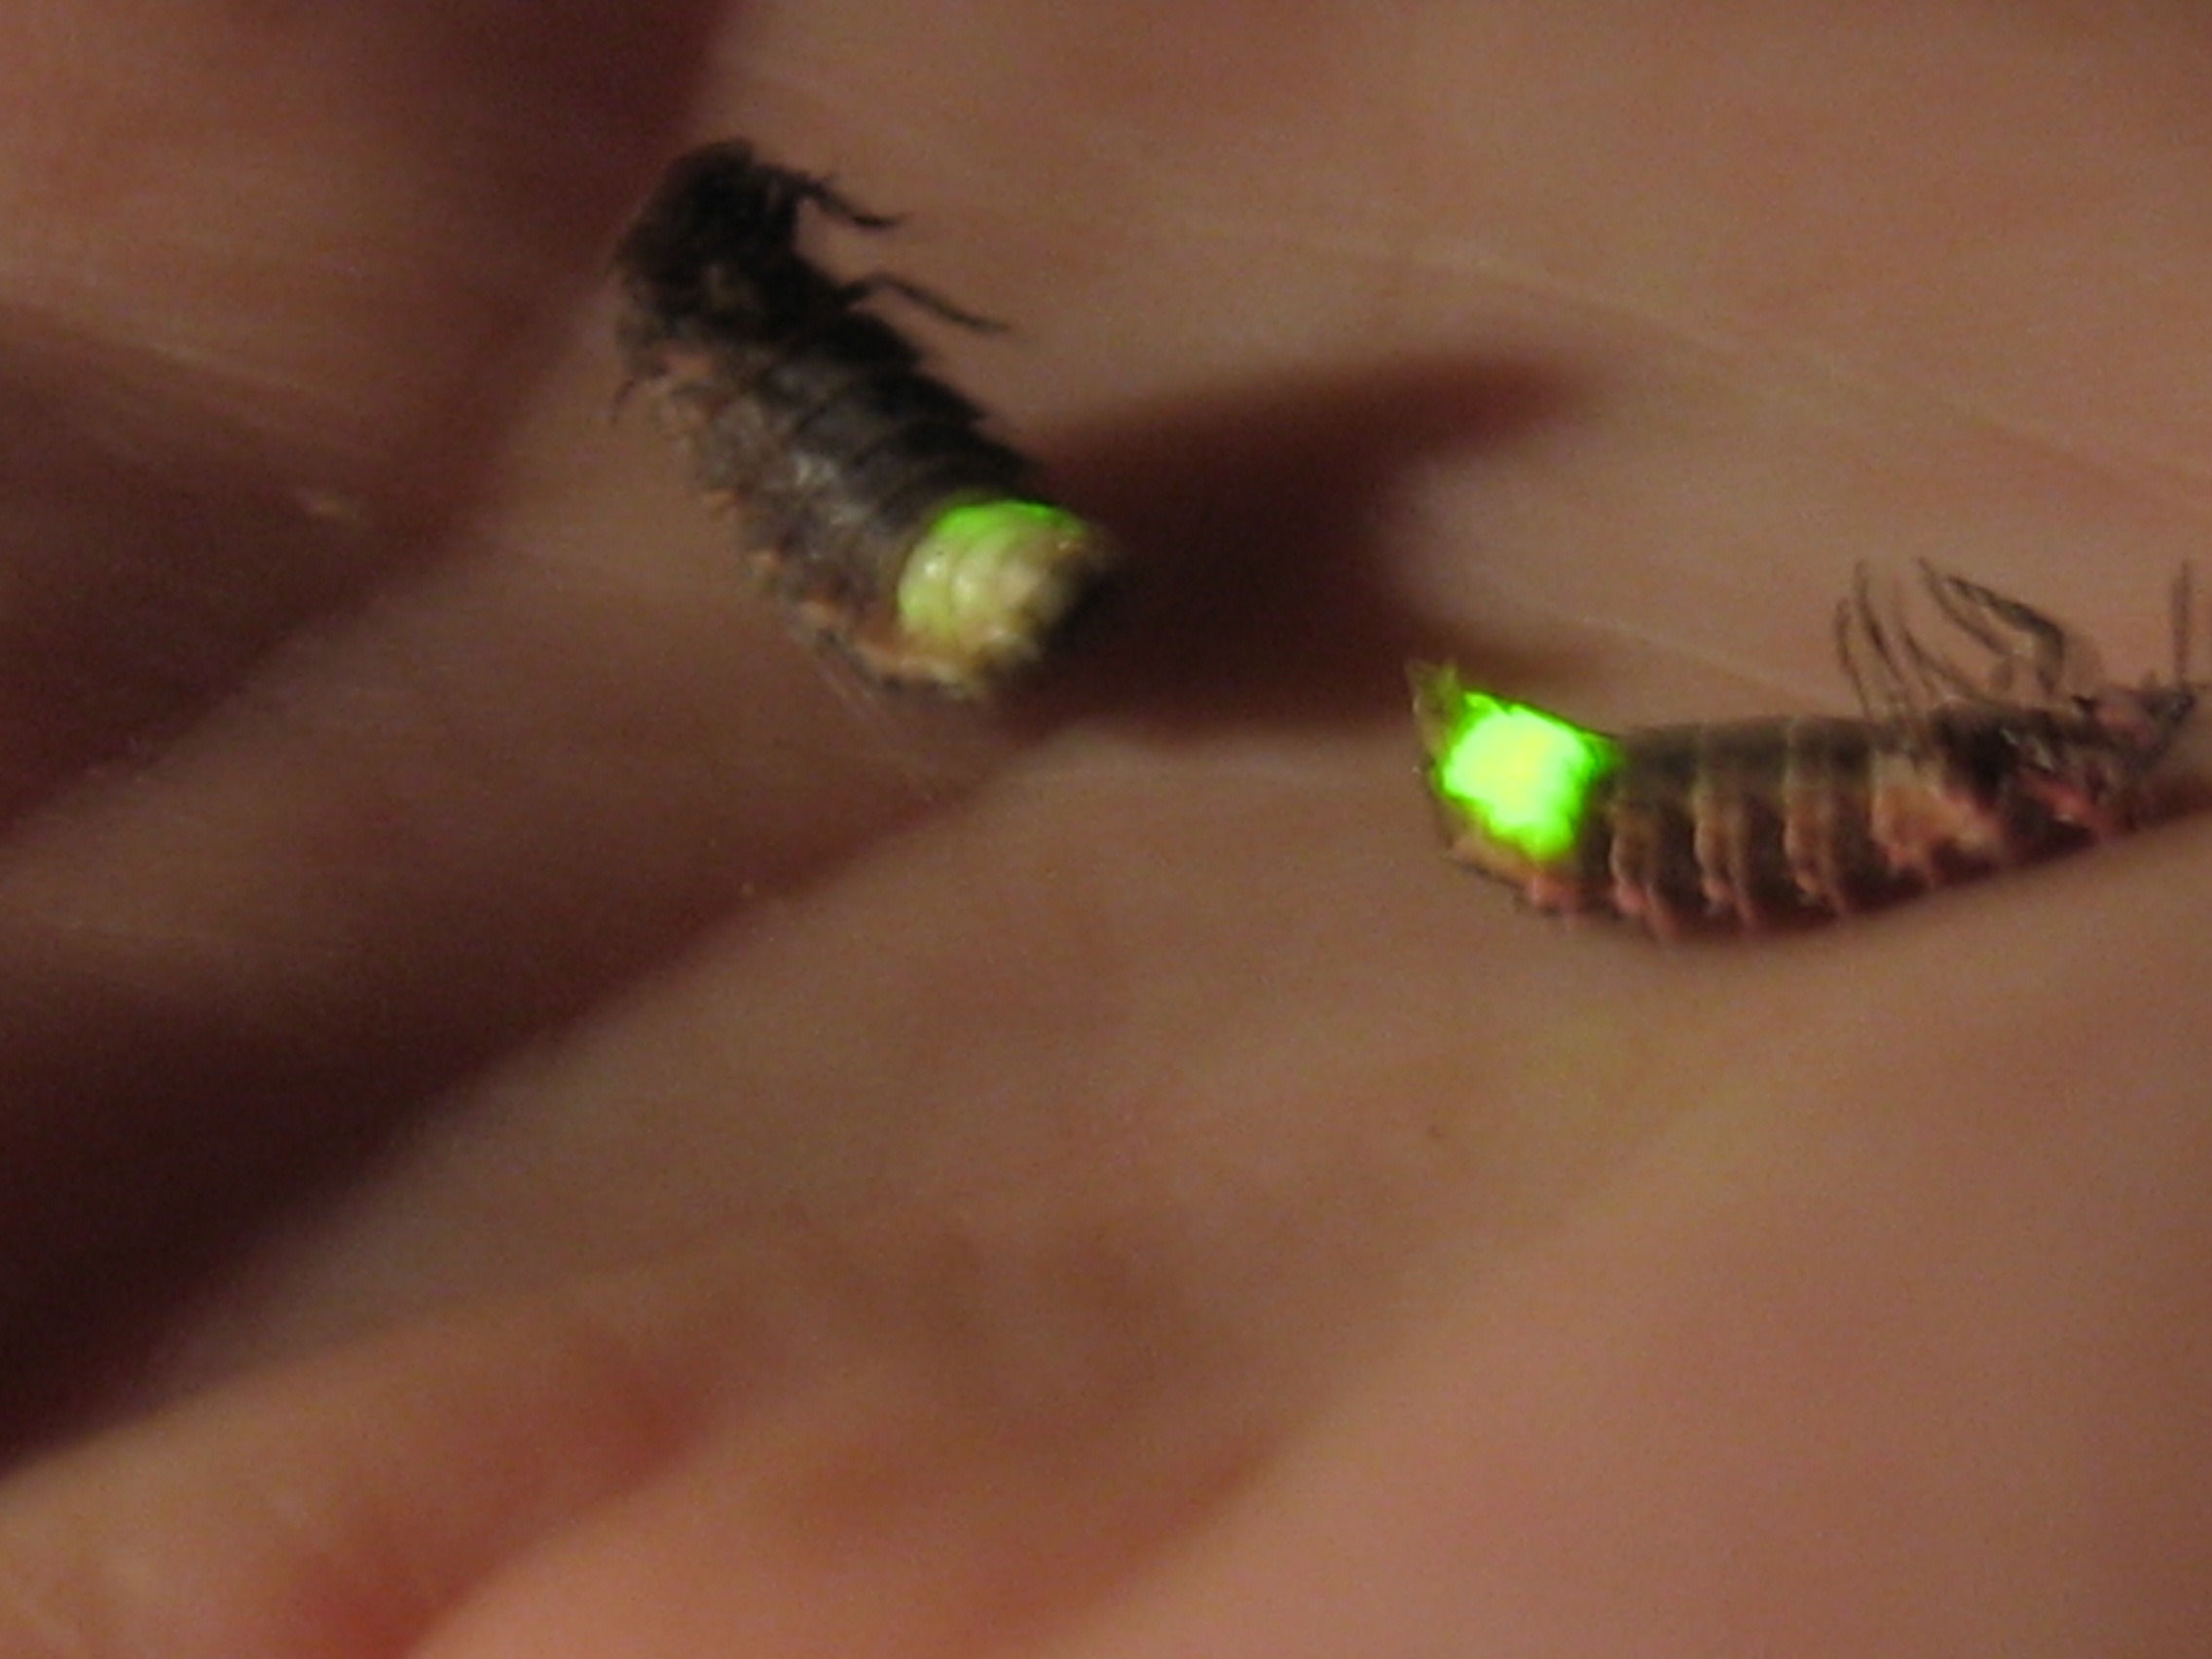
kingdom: Animalia
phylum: Arthropoda
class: Insecta
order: Coleoptera
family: Lampyridae
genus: Lampyris
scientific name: Lampyris noctiluca
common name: Sankthansorm
